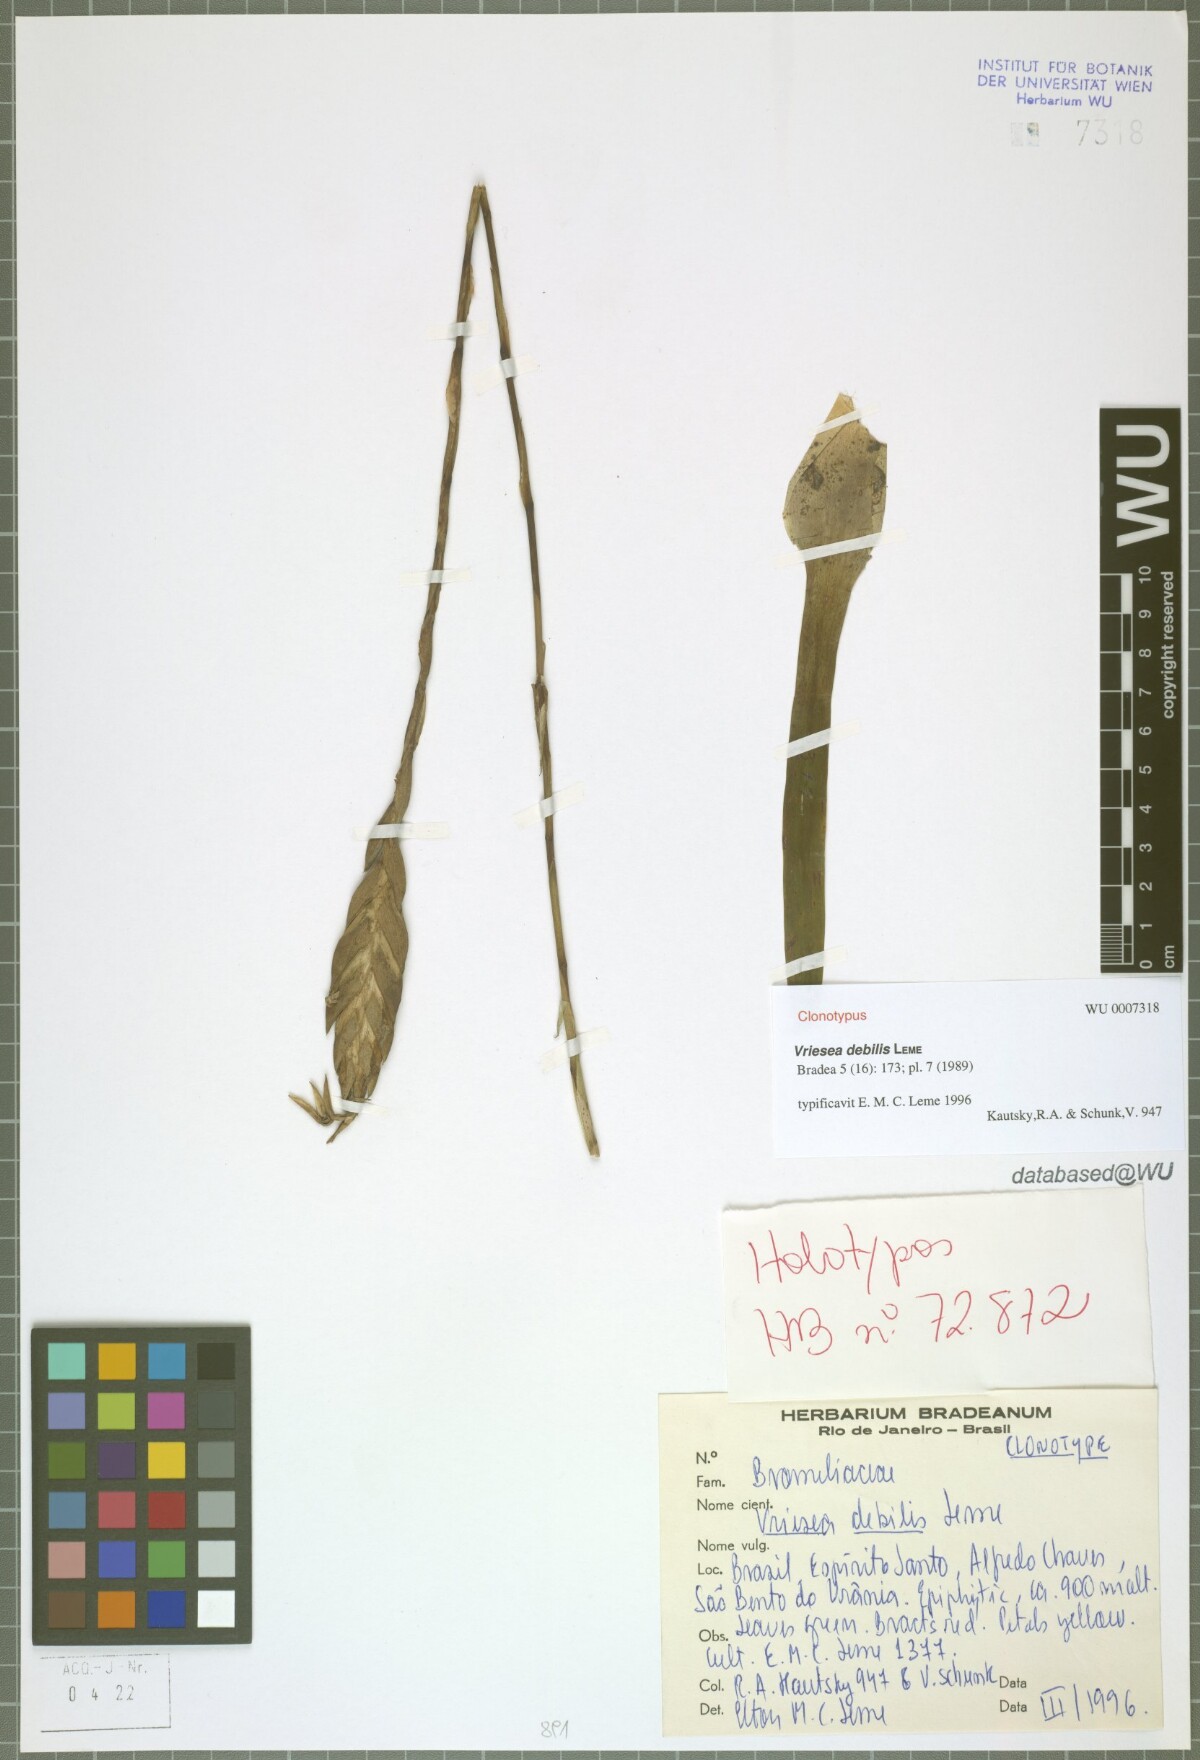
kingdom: Plantae
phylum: Tracheophyta
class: Liliopsida
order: Poales
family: Bromeliaceae
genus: Vriesea
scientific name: Vriesea debilis
